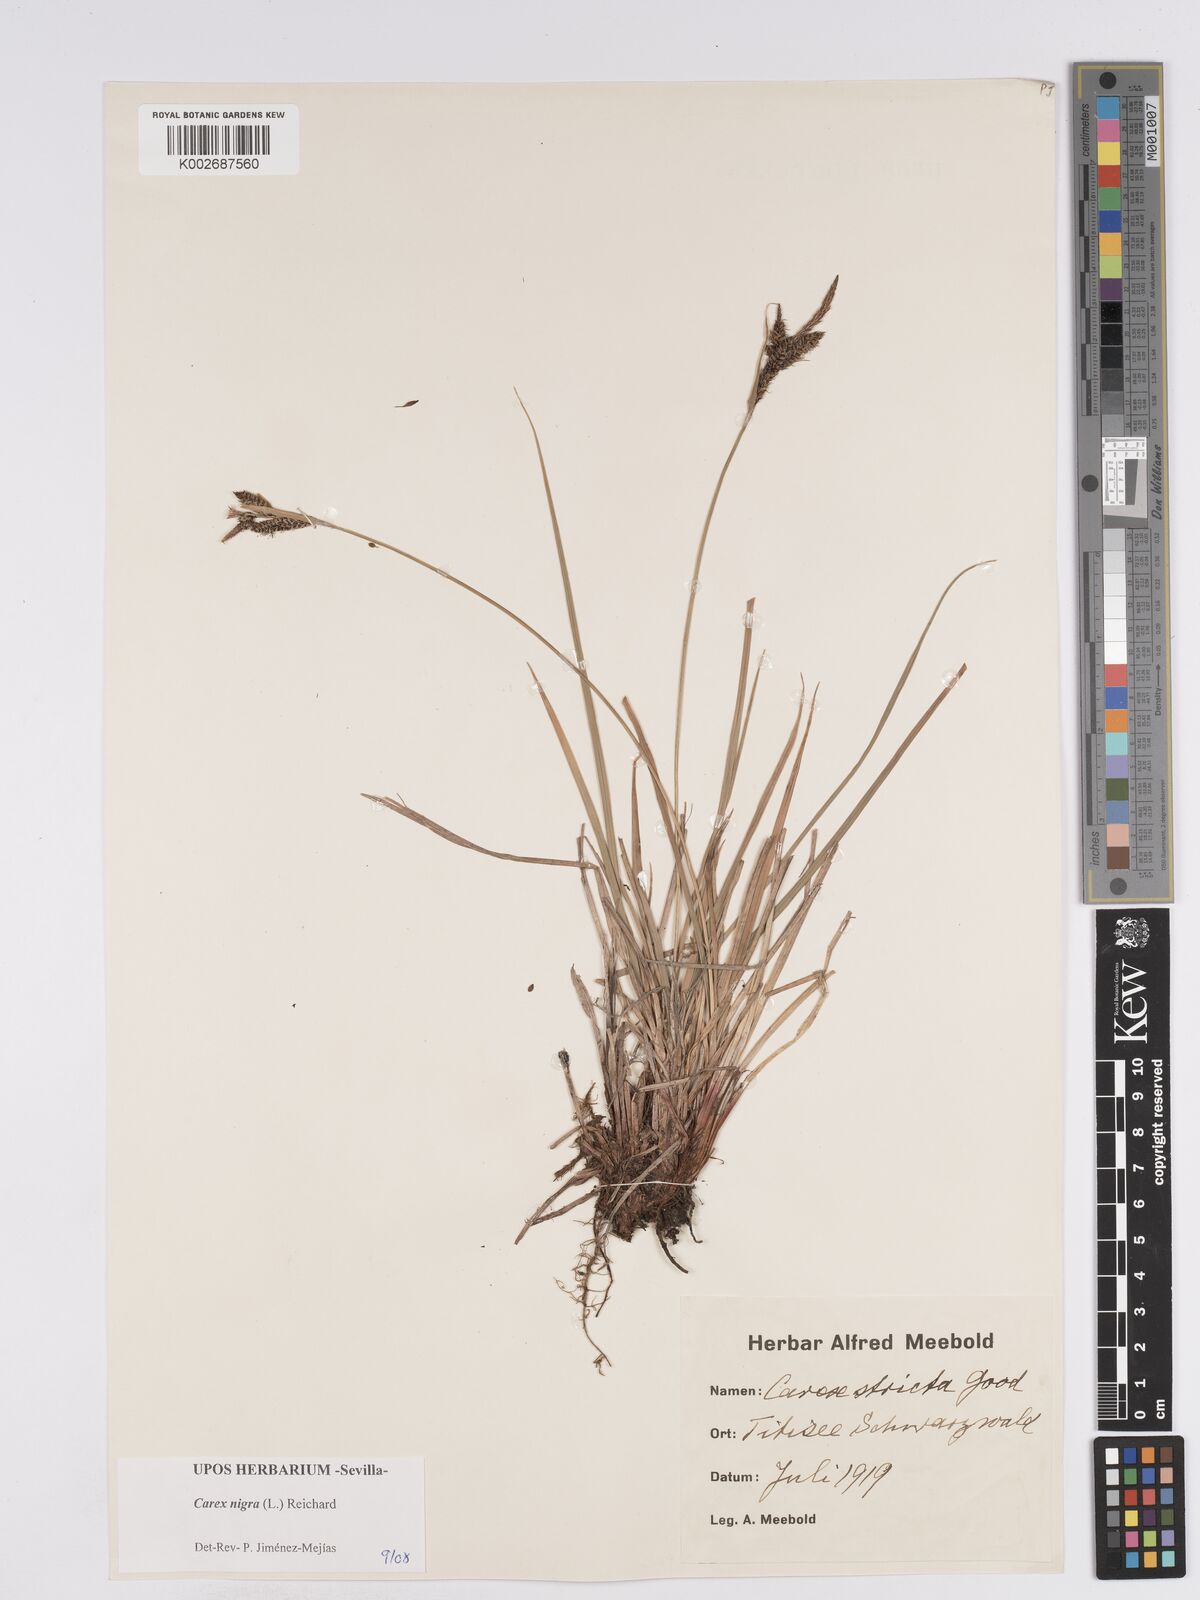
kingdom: Plantae
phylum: Tracheophyta
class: Liliopsida
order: Poales
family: Cyperaceae
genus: Carex
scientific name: Carex nigra
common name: Common sedge
